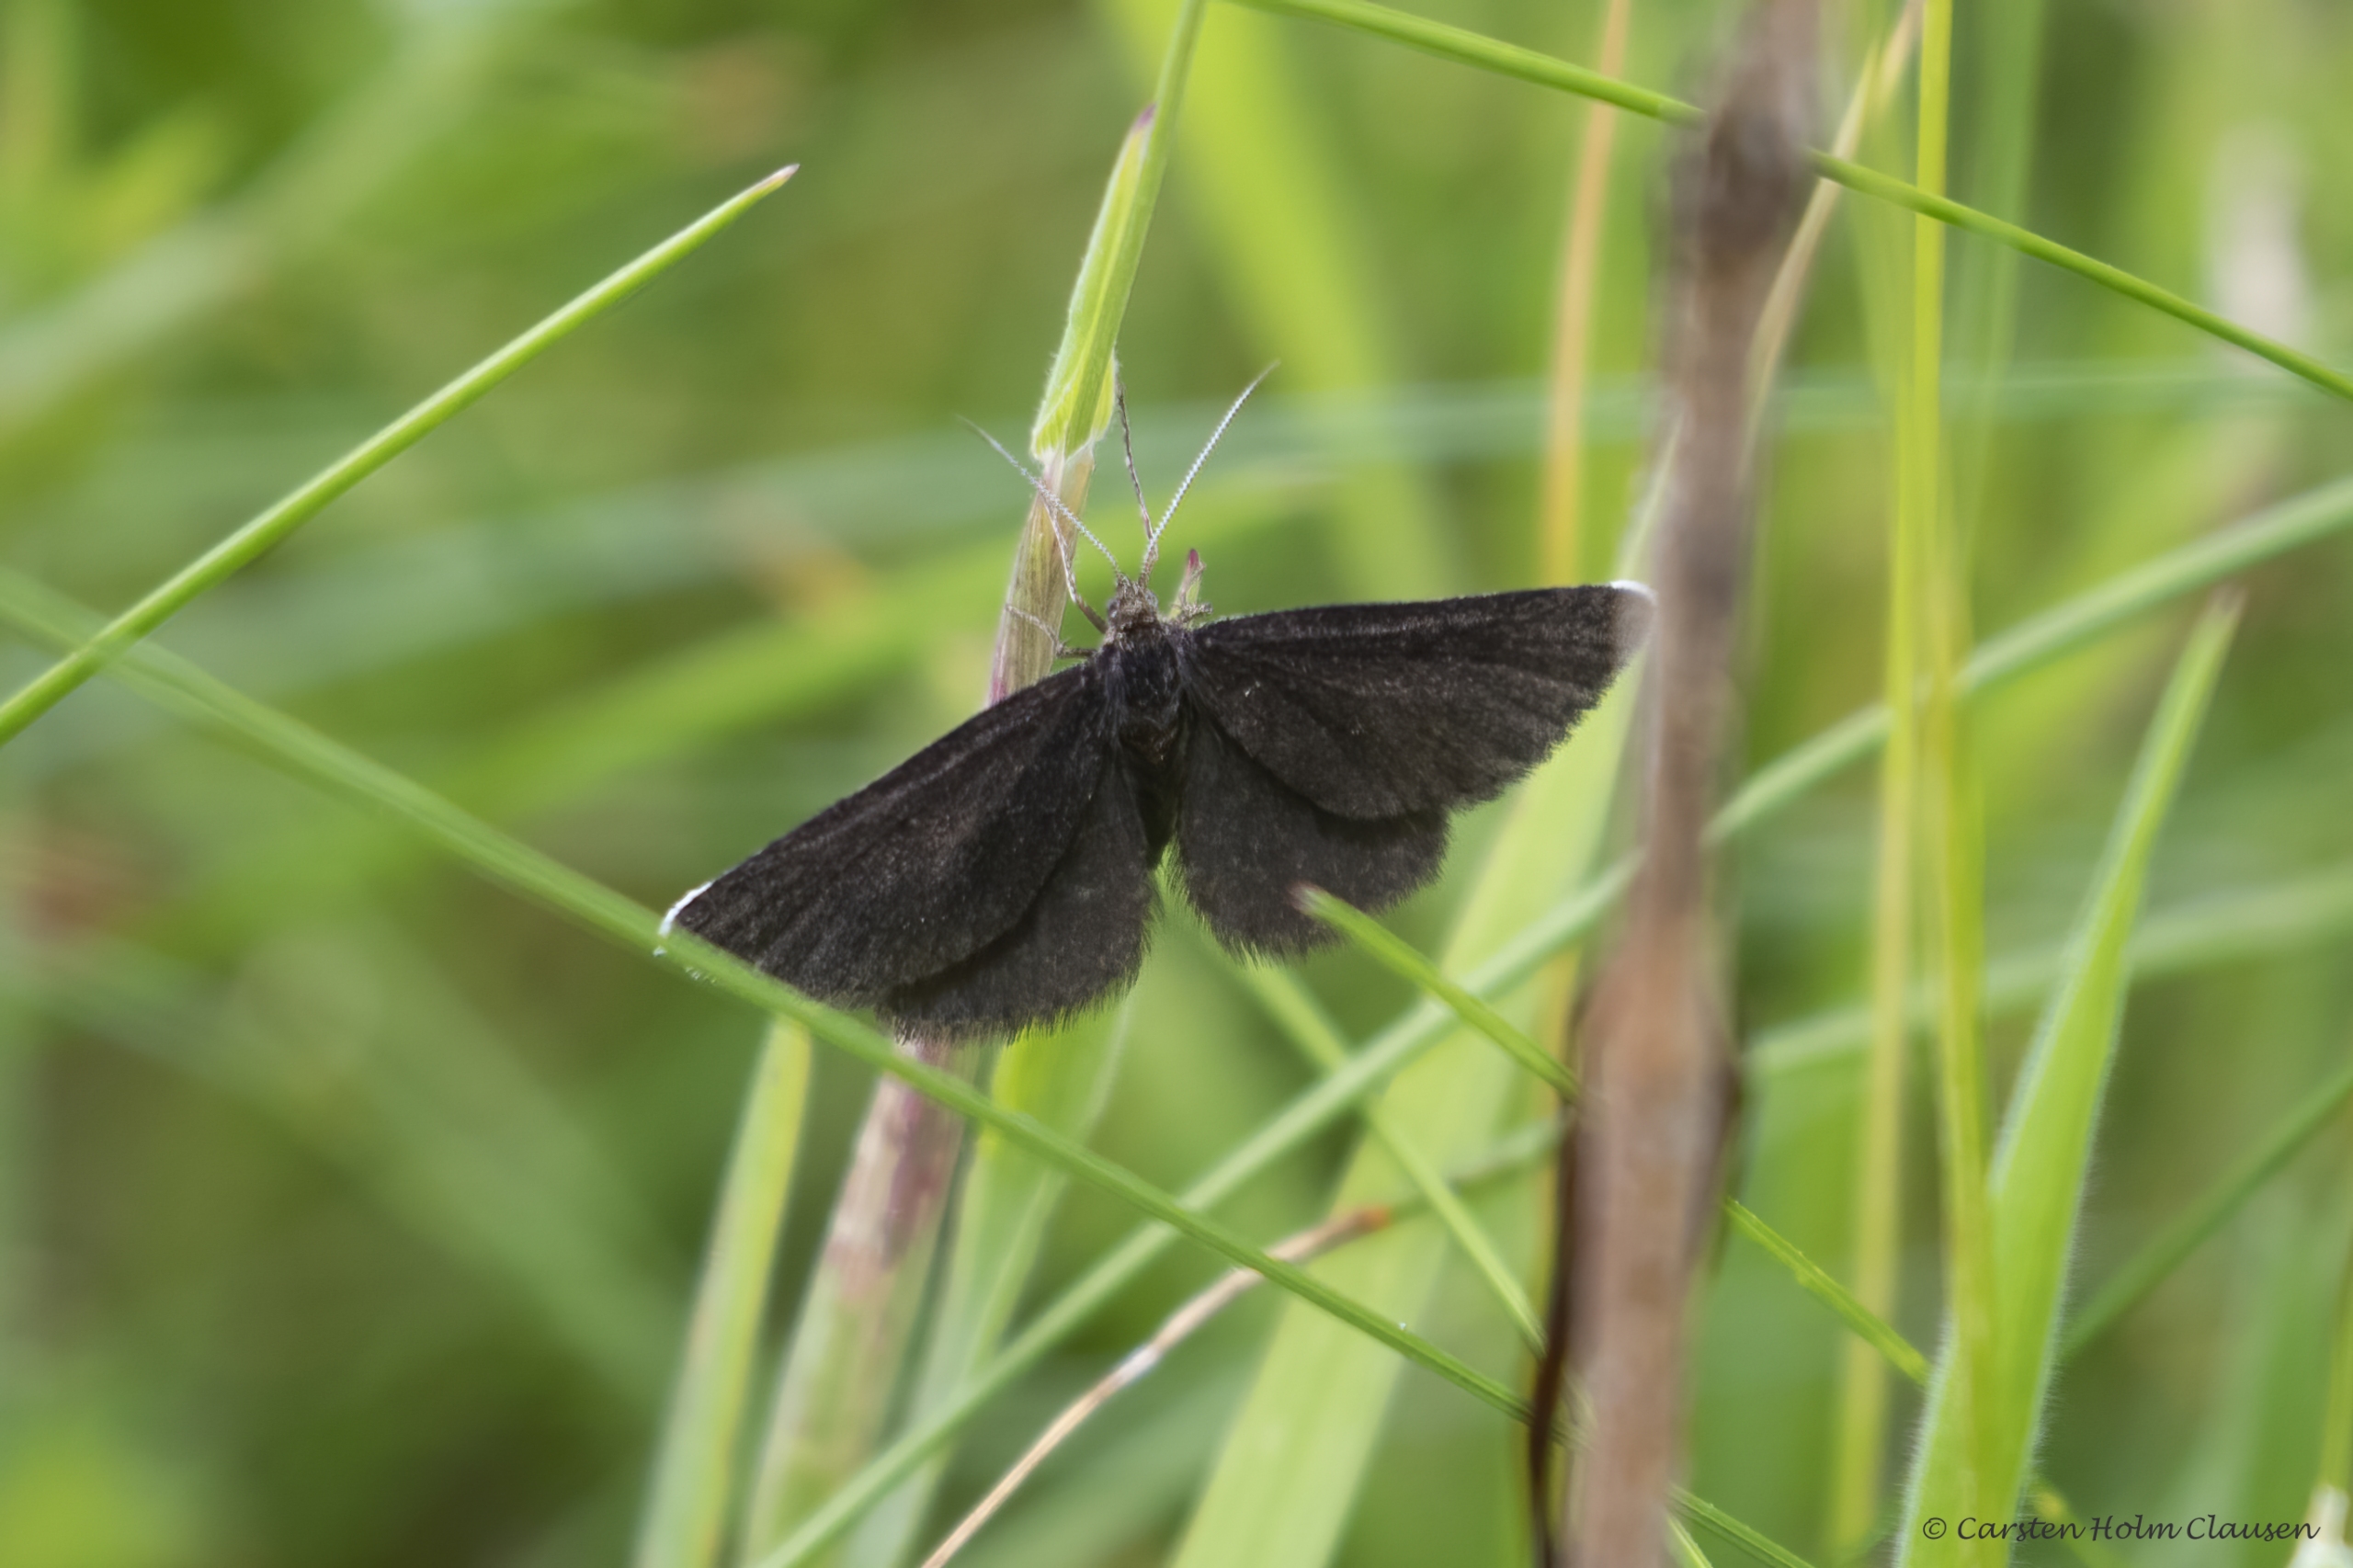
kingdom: Animalia
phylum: Arthropoda
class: Insecta
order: Lepidoptera
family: Geometridae
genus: Odezia
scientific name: Odezia atrata
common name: Sort måler
